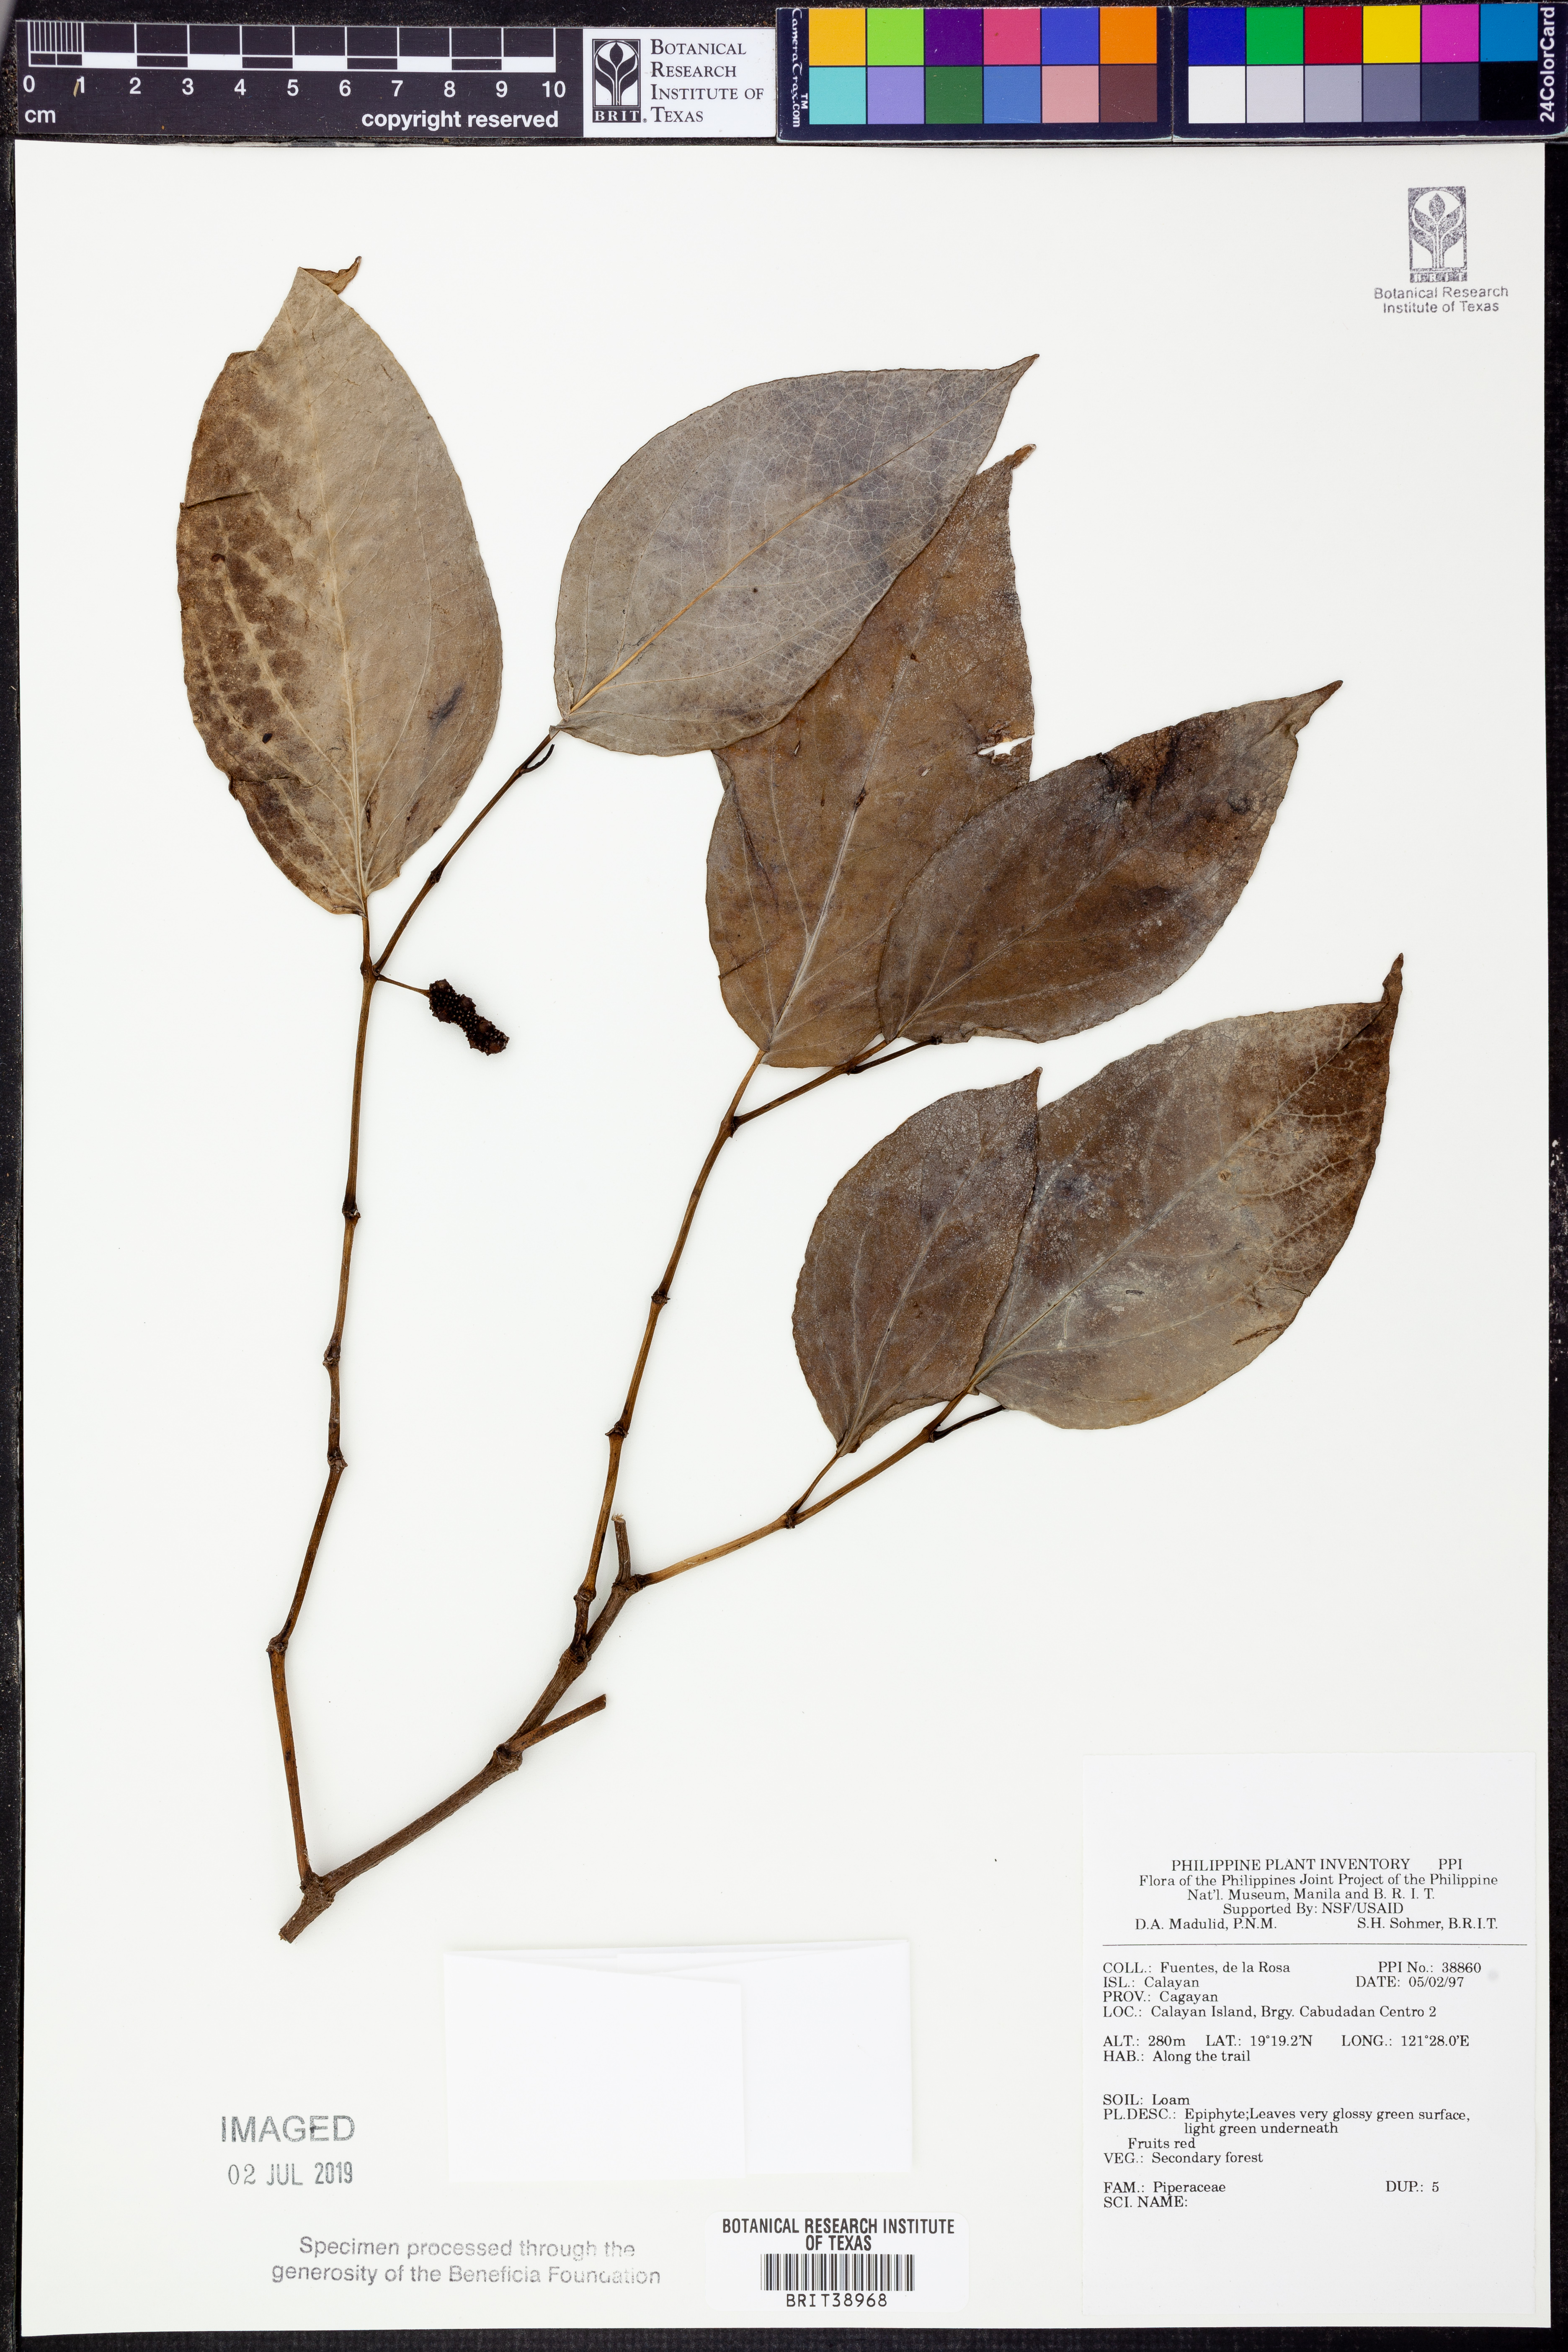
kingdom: Plantae
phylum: Tracheophyta
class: Magnoliopsida
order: Piperales
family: Piperaceae
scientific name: Piperaceae
